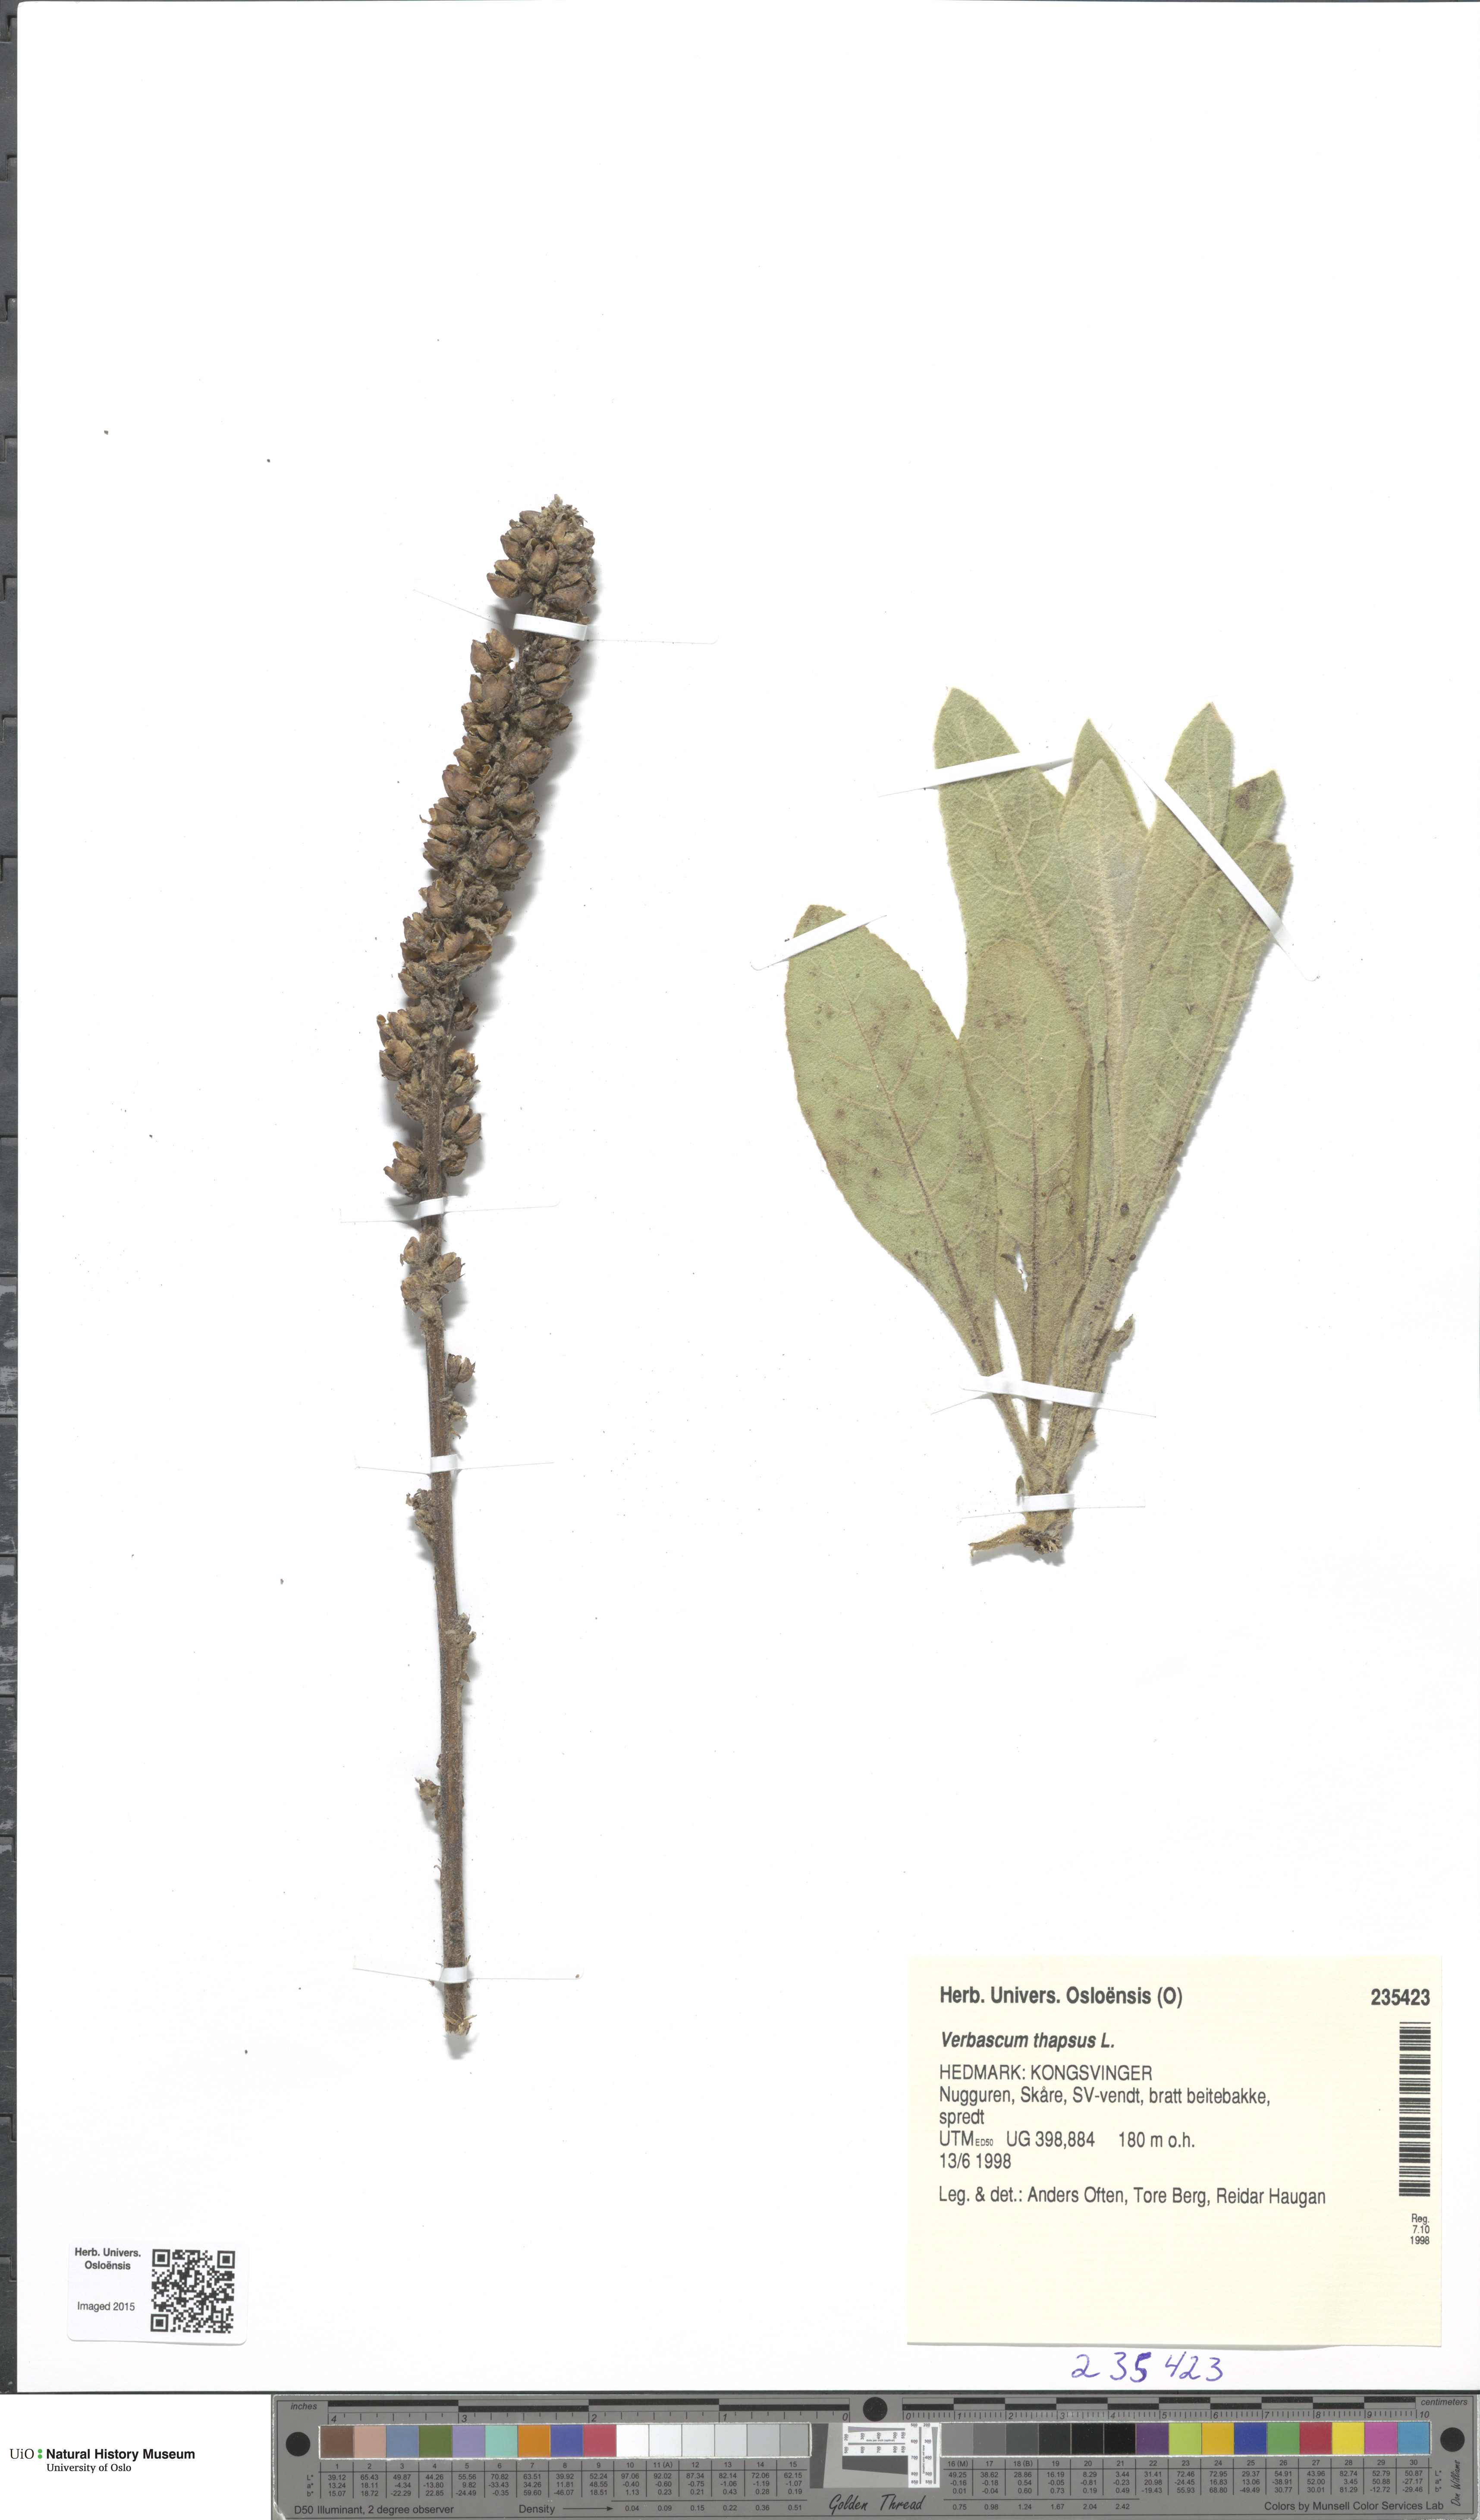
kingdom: Plantae
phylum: Tracheophyta
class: Magnoliopsida
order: Lamiales
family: Scrophulariaceae
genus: Verbascum
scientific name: Verbascum thapsus
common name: Common mullein
